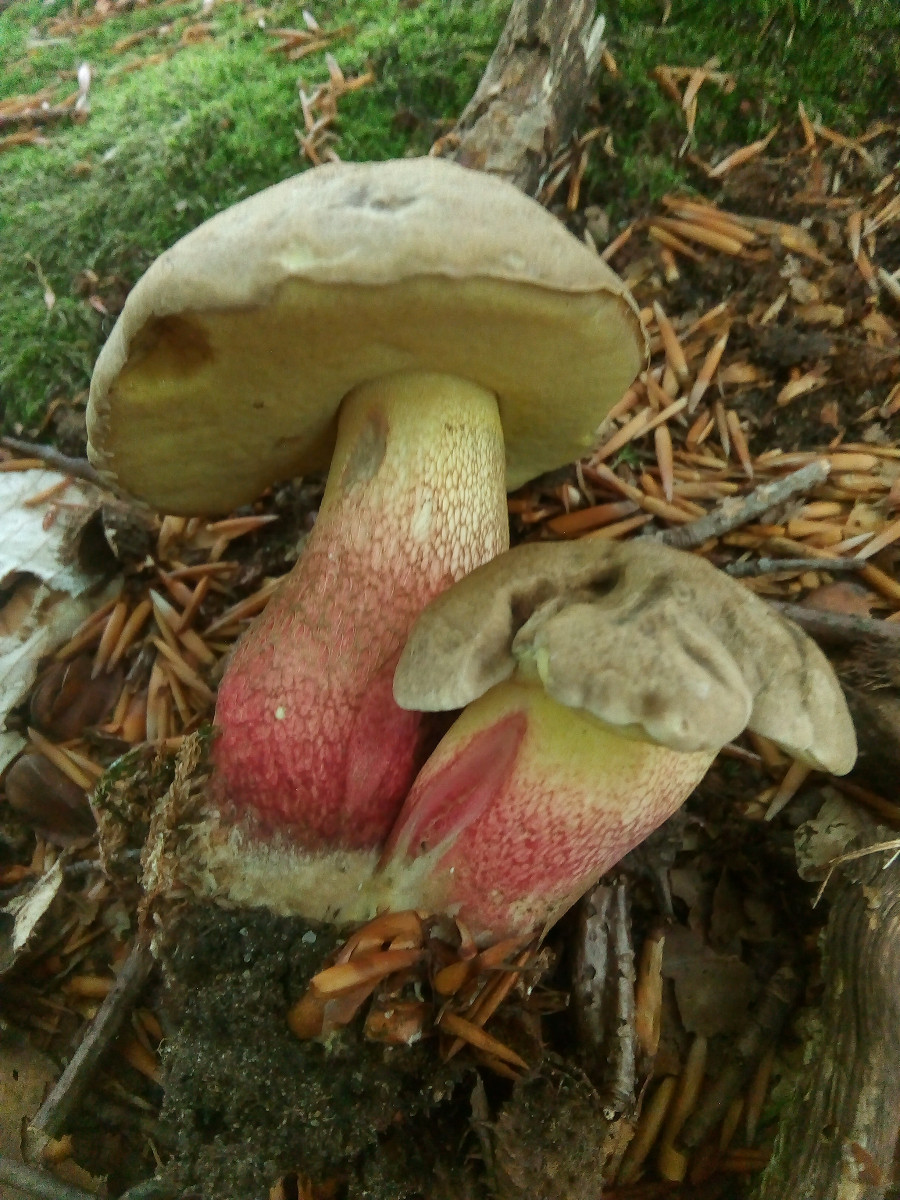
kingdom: Fungi
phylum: Basidiomycota
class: Agaricomycetes
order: Boletales
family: Boletaceae
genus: Caloboletus
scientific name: Caloboletus calopus
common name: skønfodet rørhat
